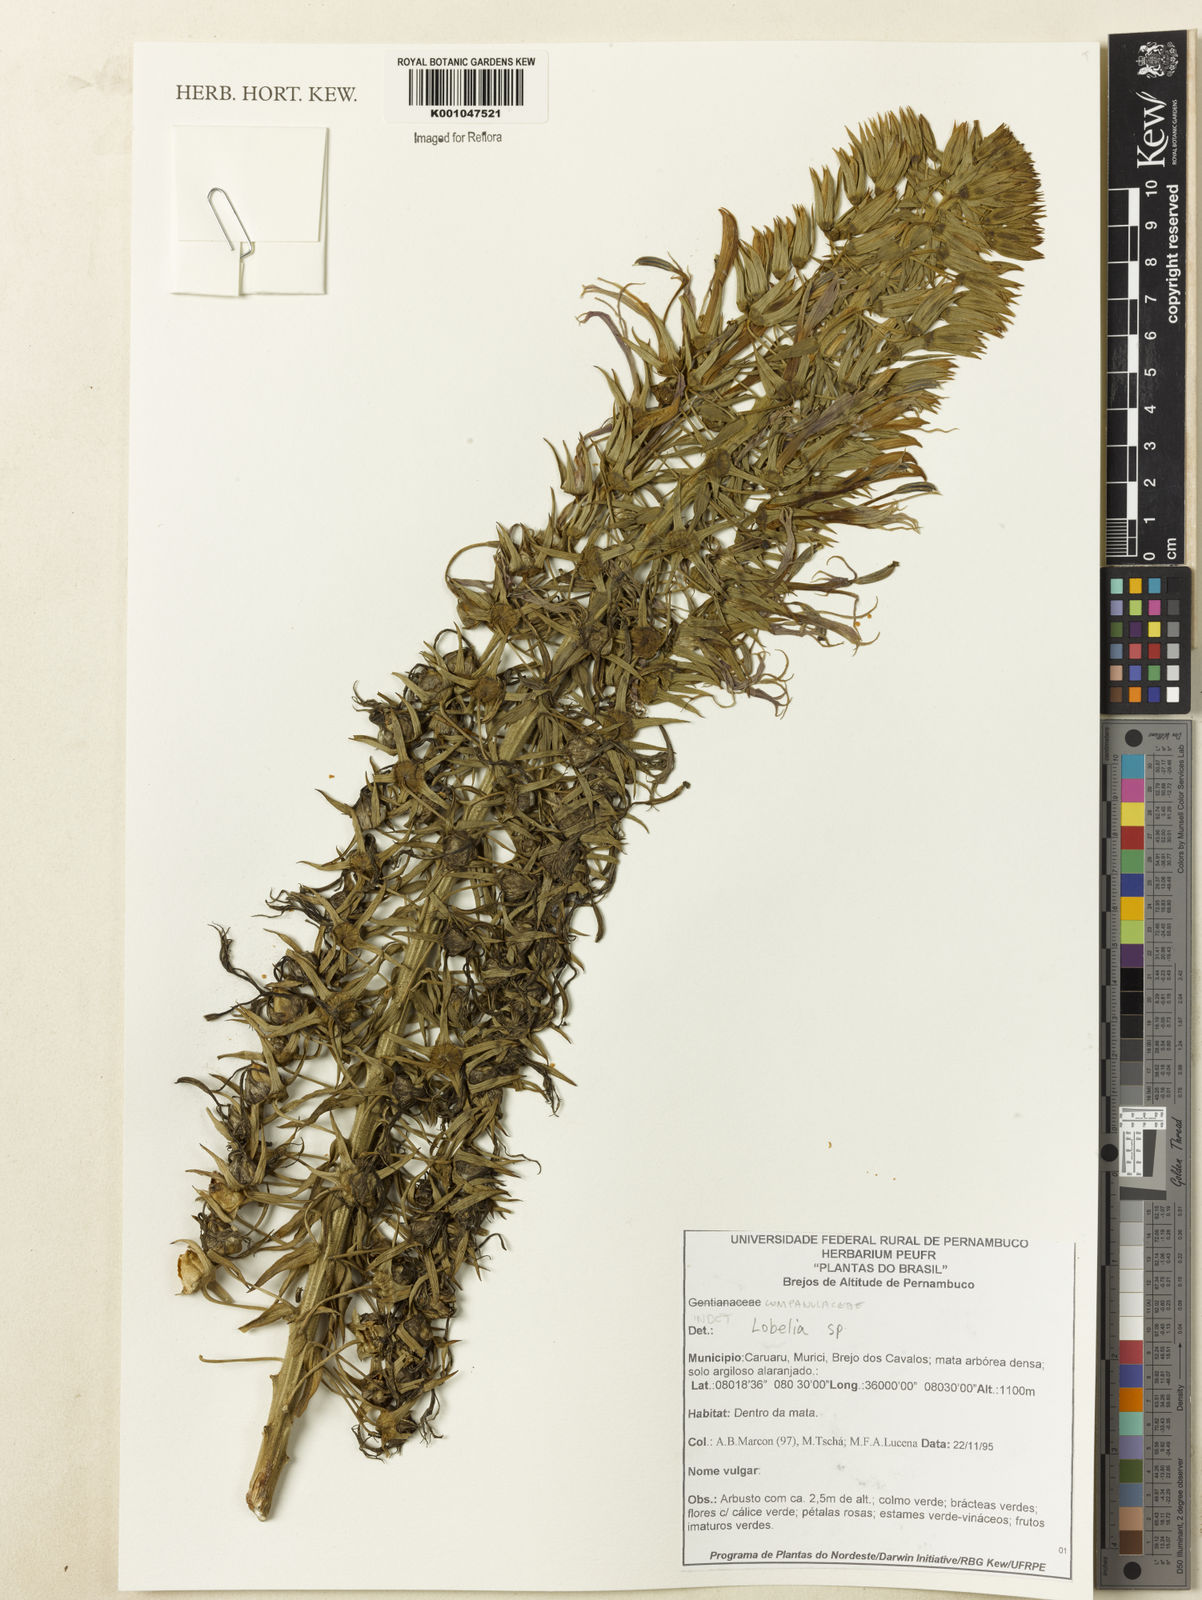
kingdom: Plantae
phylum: Tracheophyta
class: Magnoliopsida
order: Asterales
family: Campanulaceae
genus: Lobelia
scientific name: Lobelia
